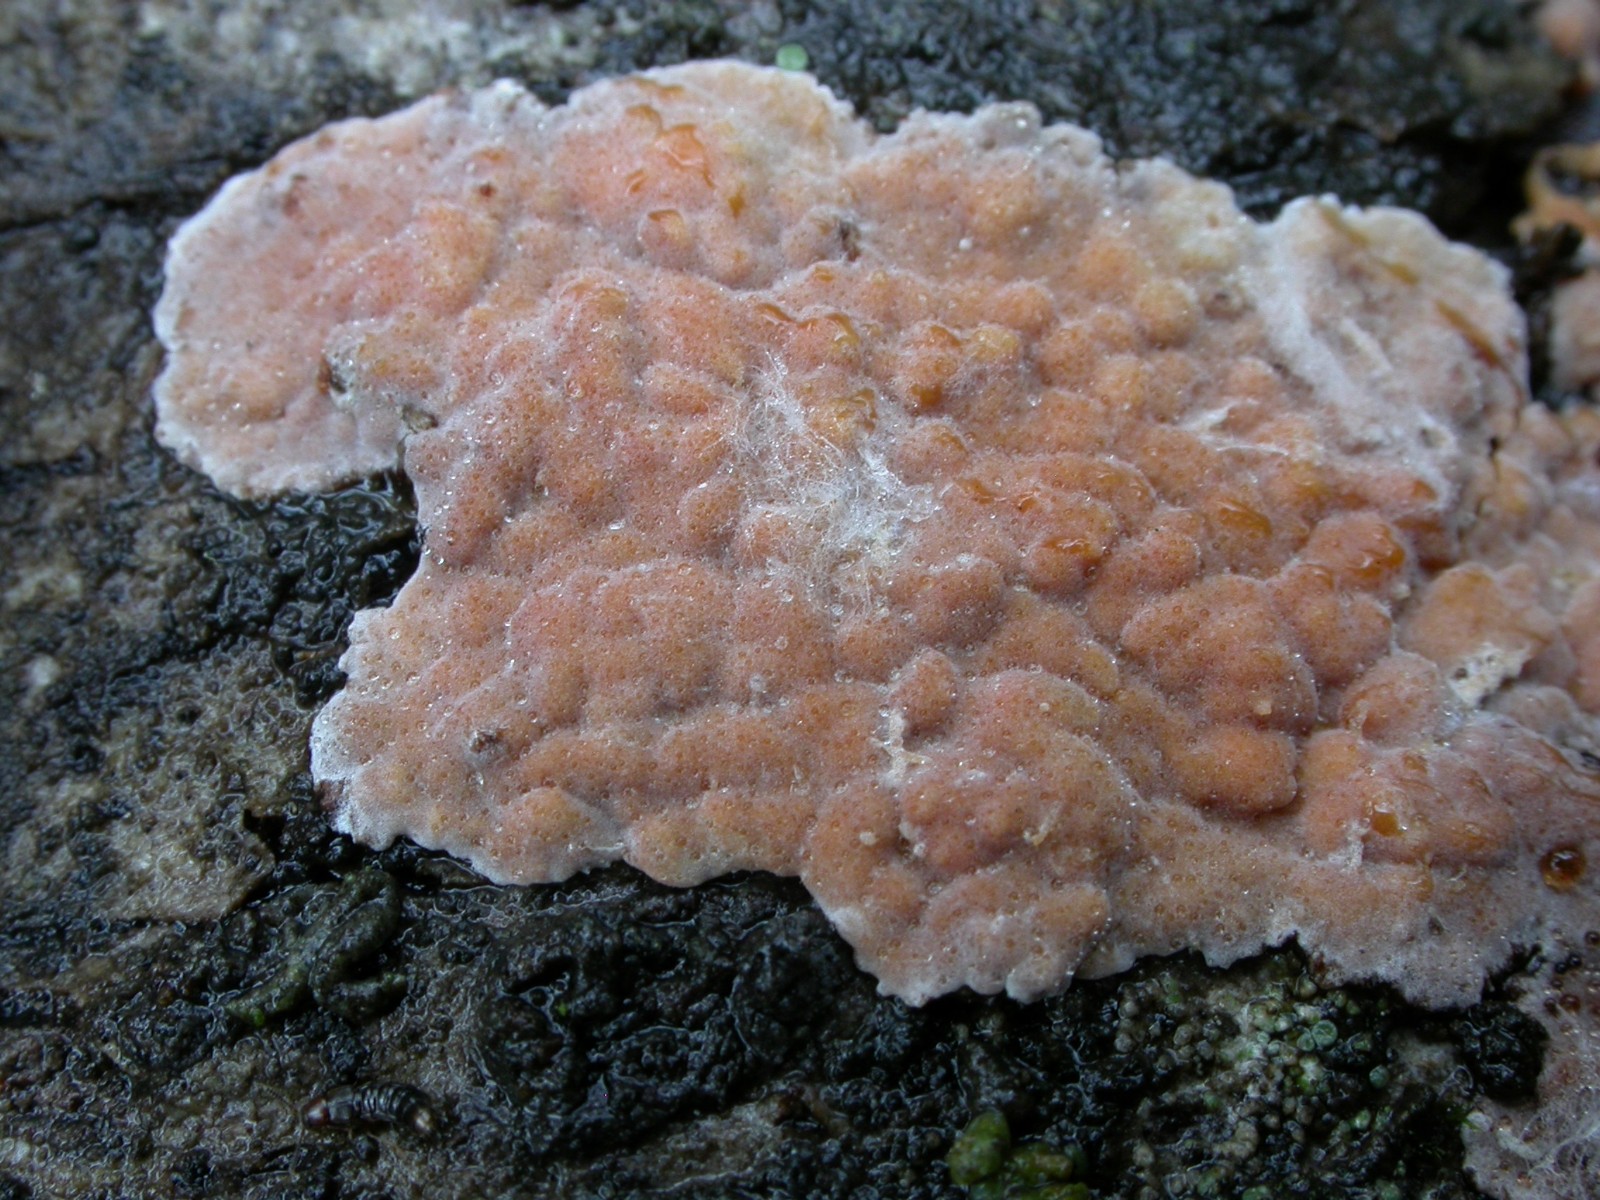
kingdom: Fungi
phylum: Basidiomycota
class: Agaricomycetes
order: Russulales
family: Peniophoraceae
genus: Peniophora
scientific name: Peniophora polygonia
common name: polygon-voksskind
